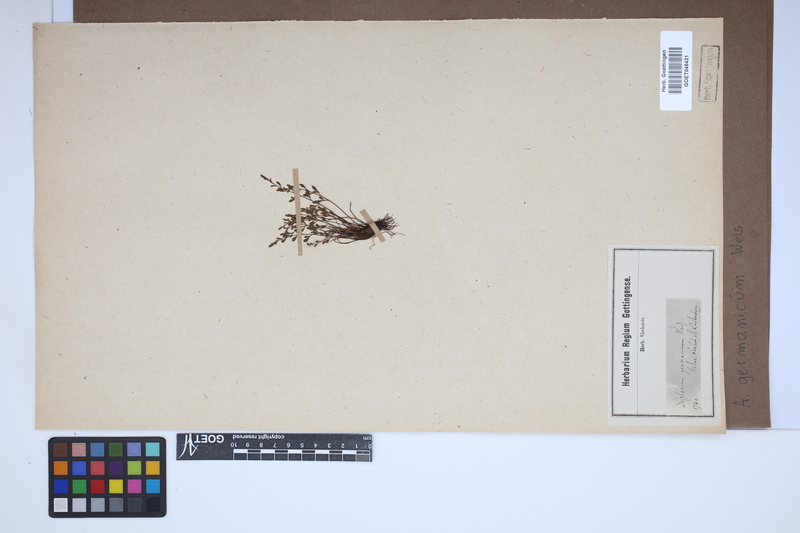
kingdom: Plantae
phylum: Tracheophyta
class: Polypodiopsida
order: Polypodiales
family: Aspleniaceae
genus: Asplenium
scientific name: Asplenium
